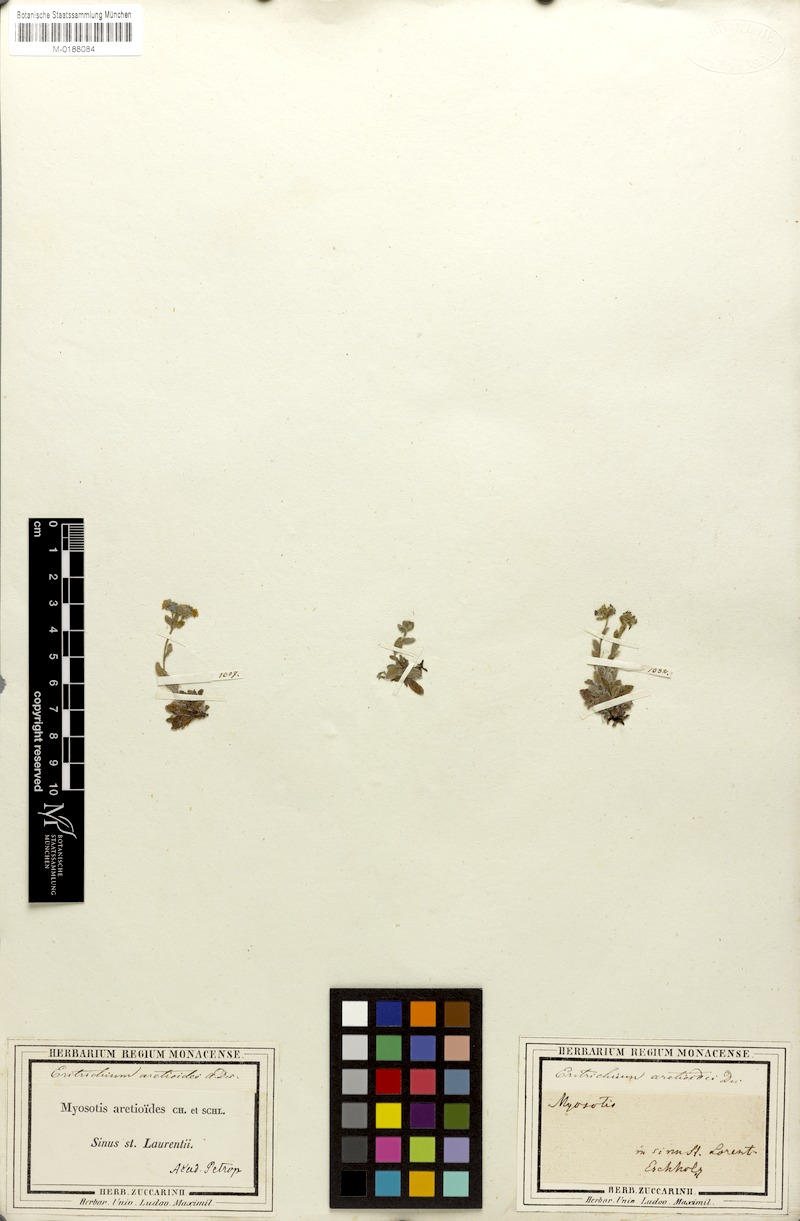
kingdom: Plantae
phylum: Tracheophyta
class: Magnoliopsida
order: Boraginales
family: Boraginaceae
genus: Eritrichium
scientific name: Eritrichium aretioides
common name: Arctic-alpine forget-me-not
